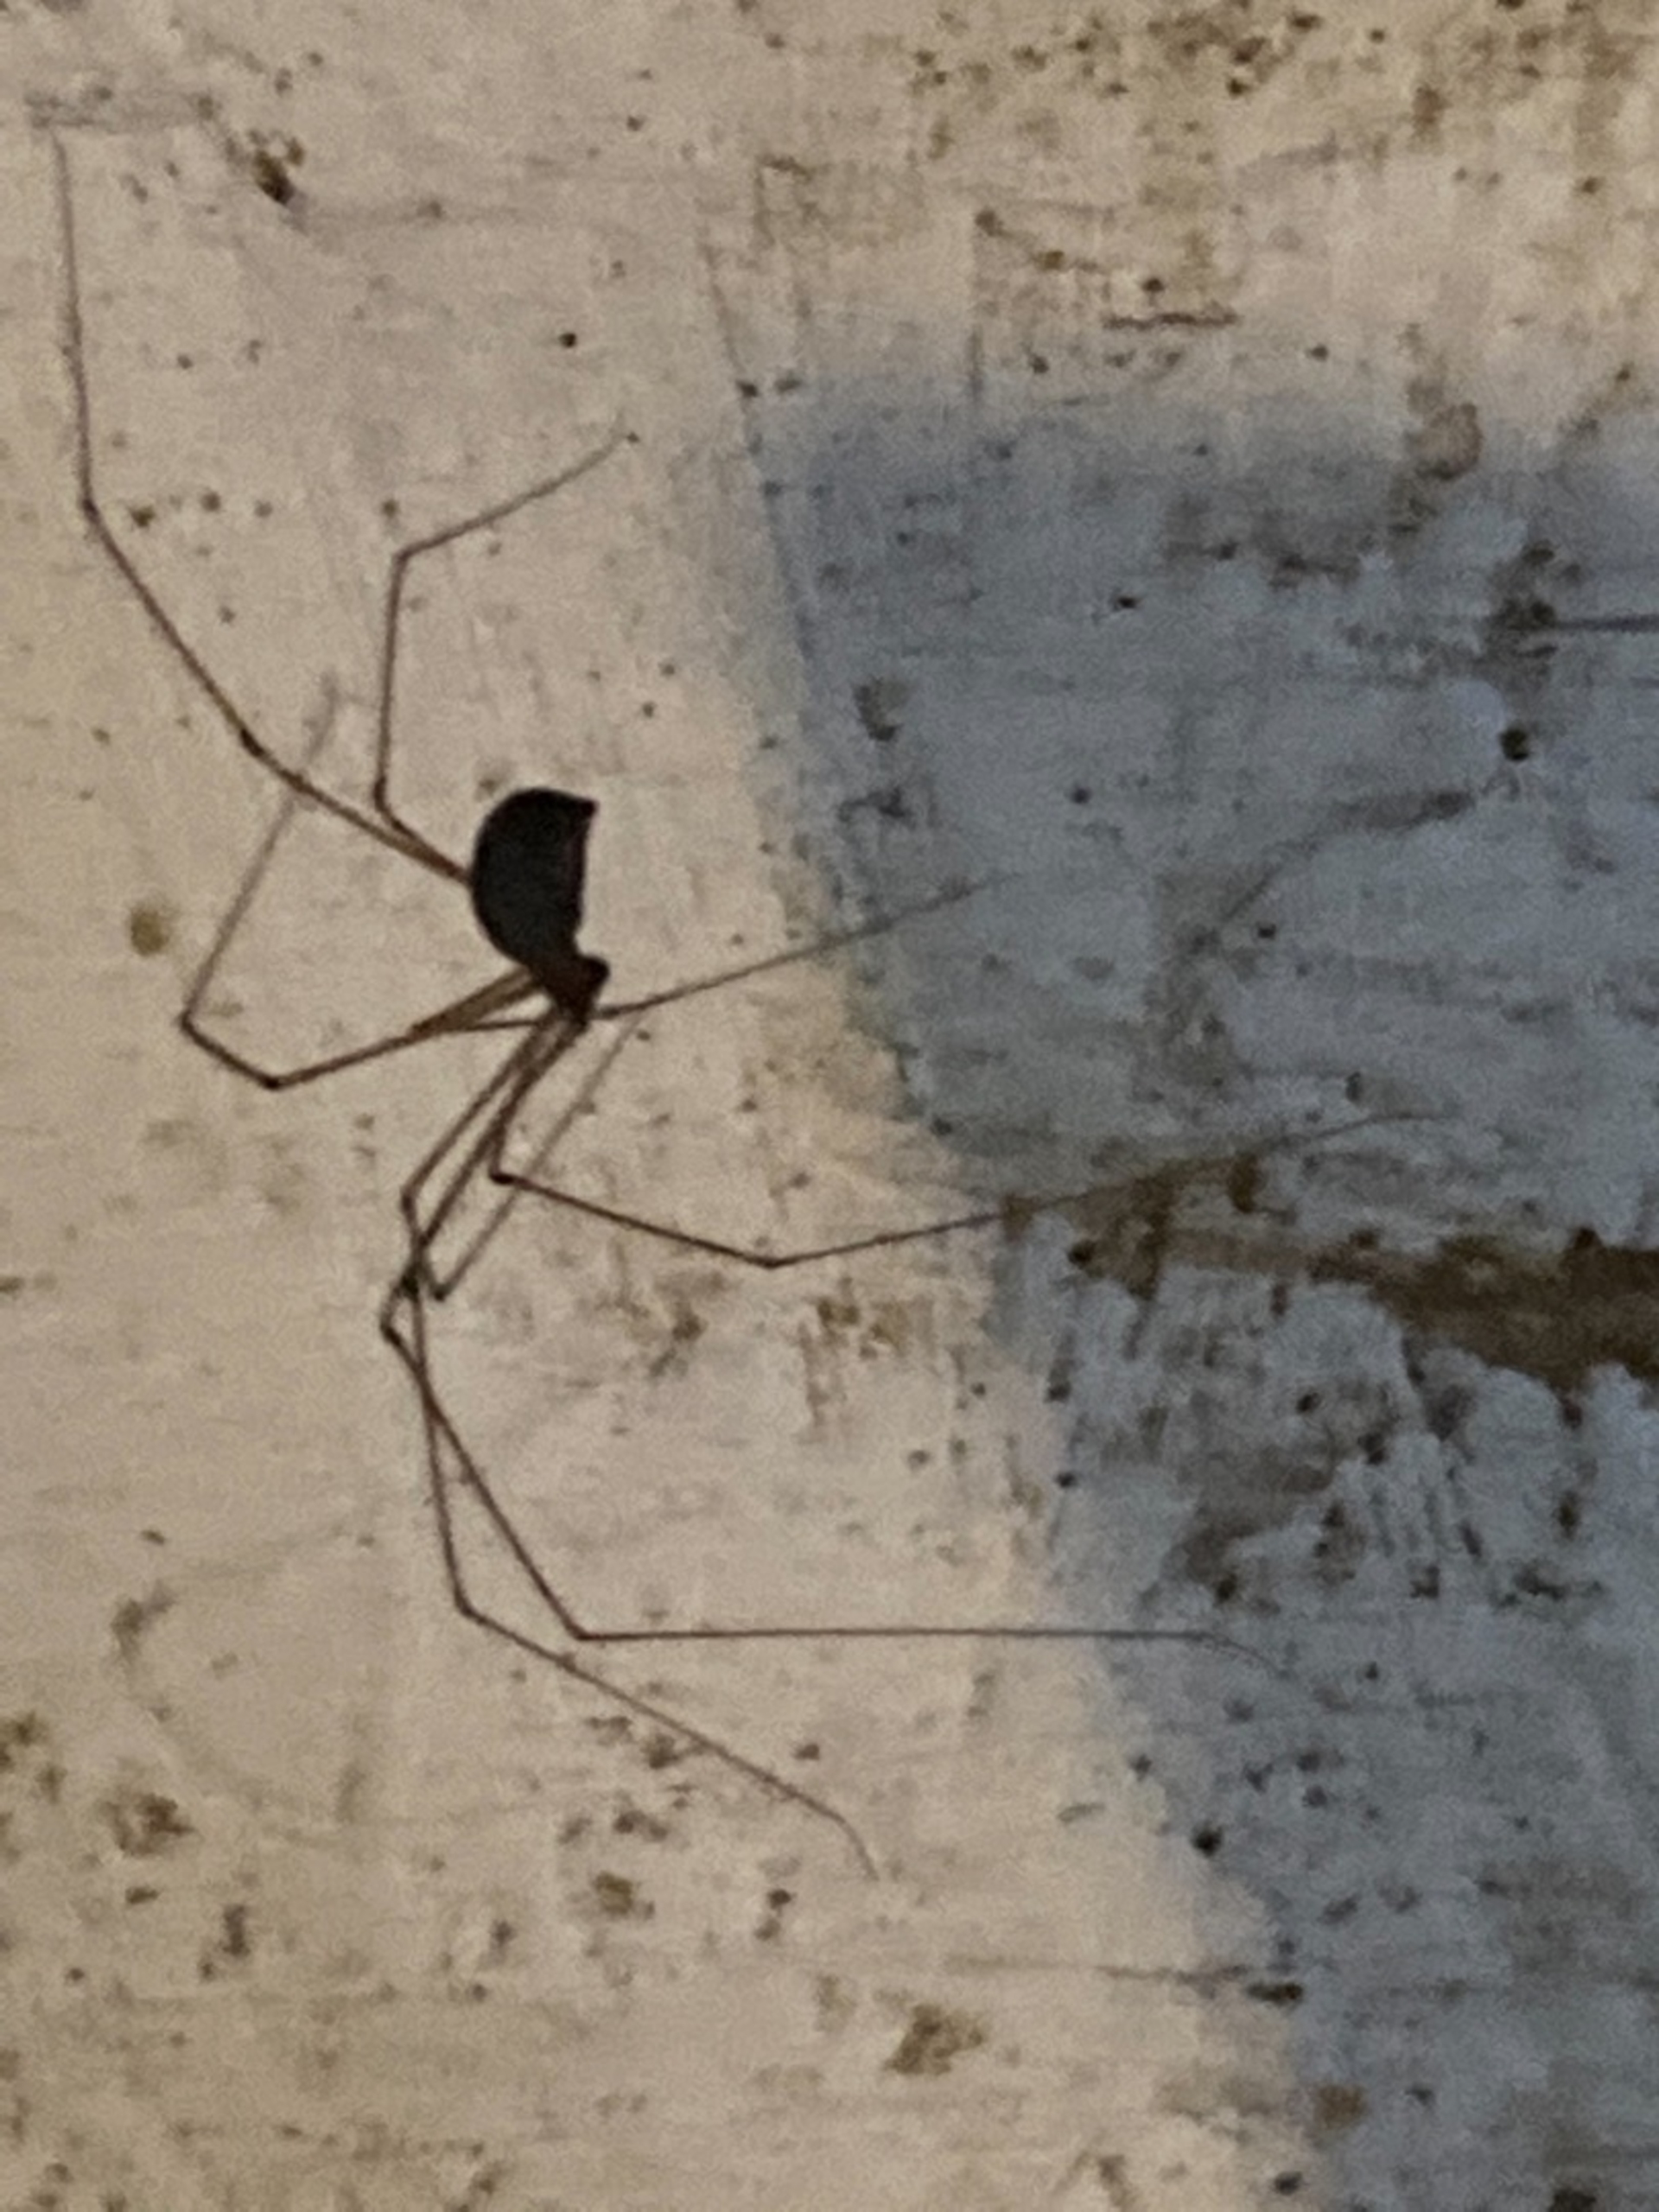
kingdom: Animalia
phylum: Arthropoda
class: Arachnida
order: Araneae
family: Pholcidae
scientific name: Pholcidae
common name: Mejeredderkopper
